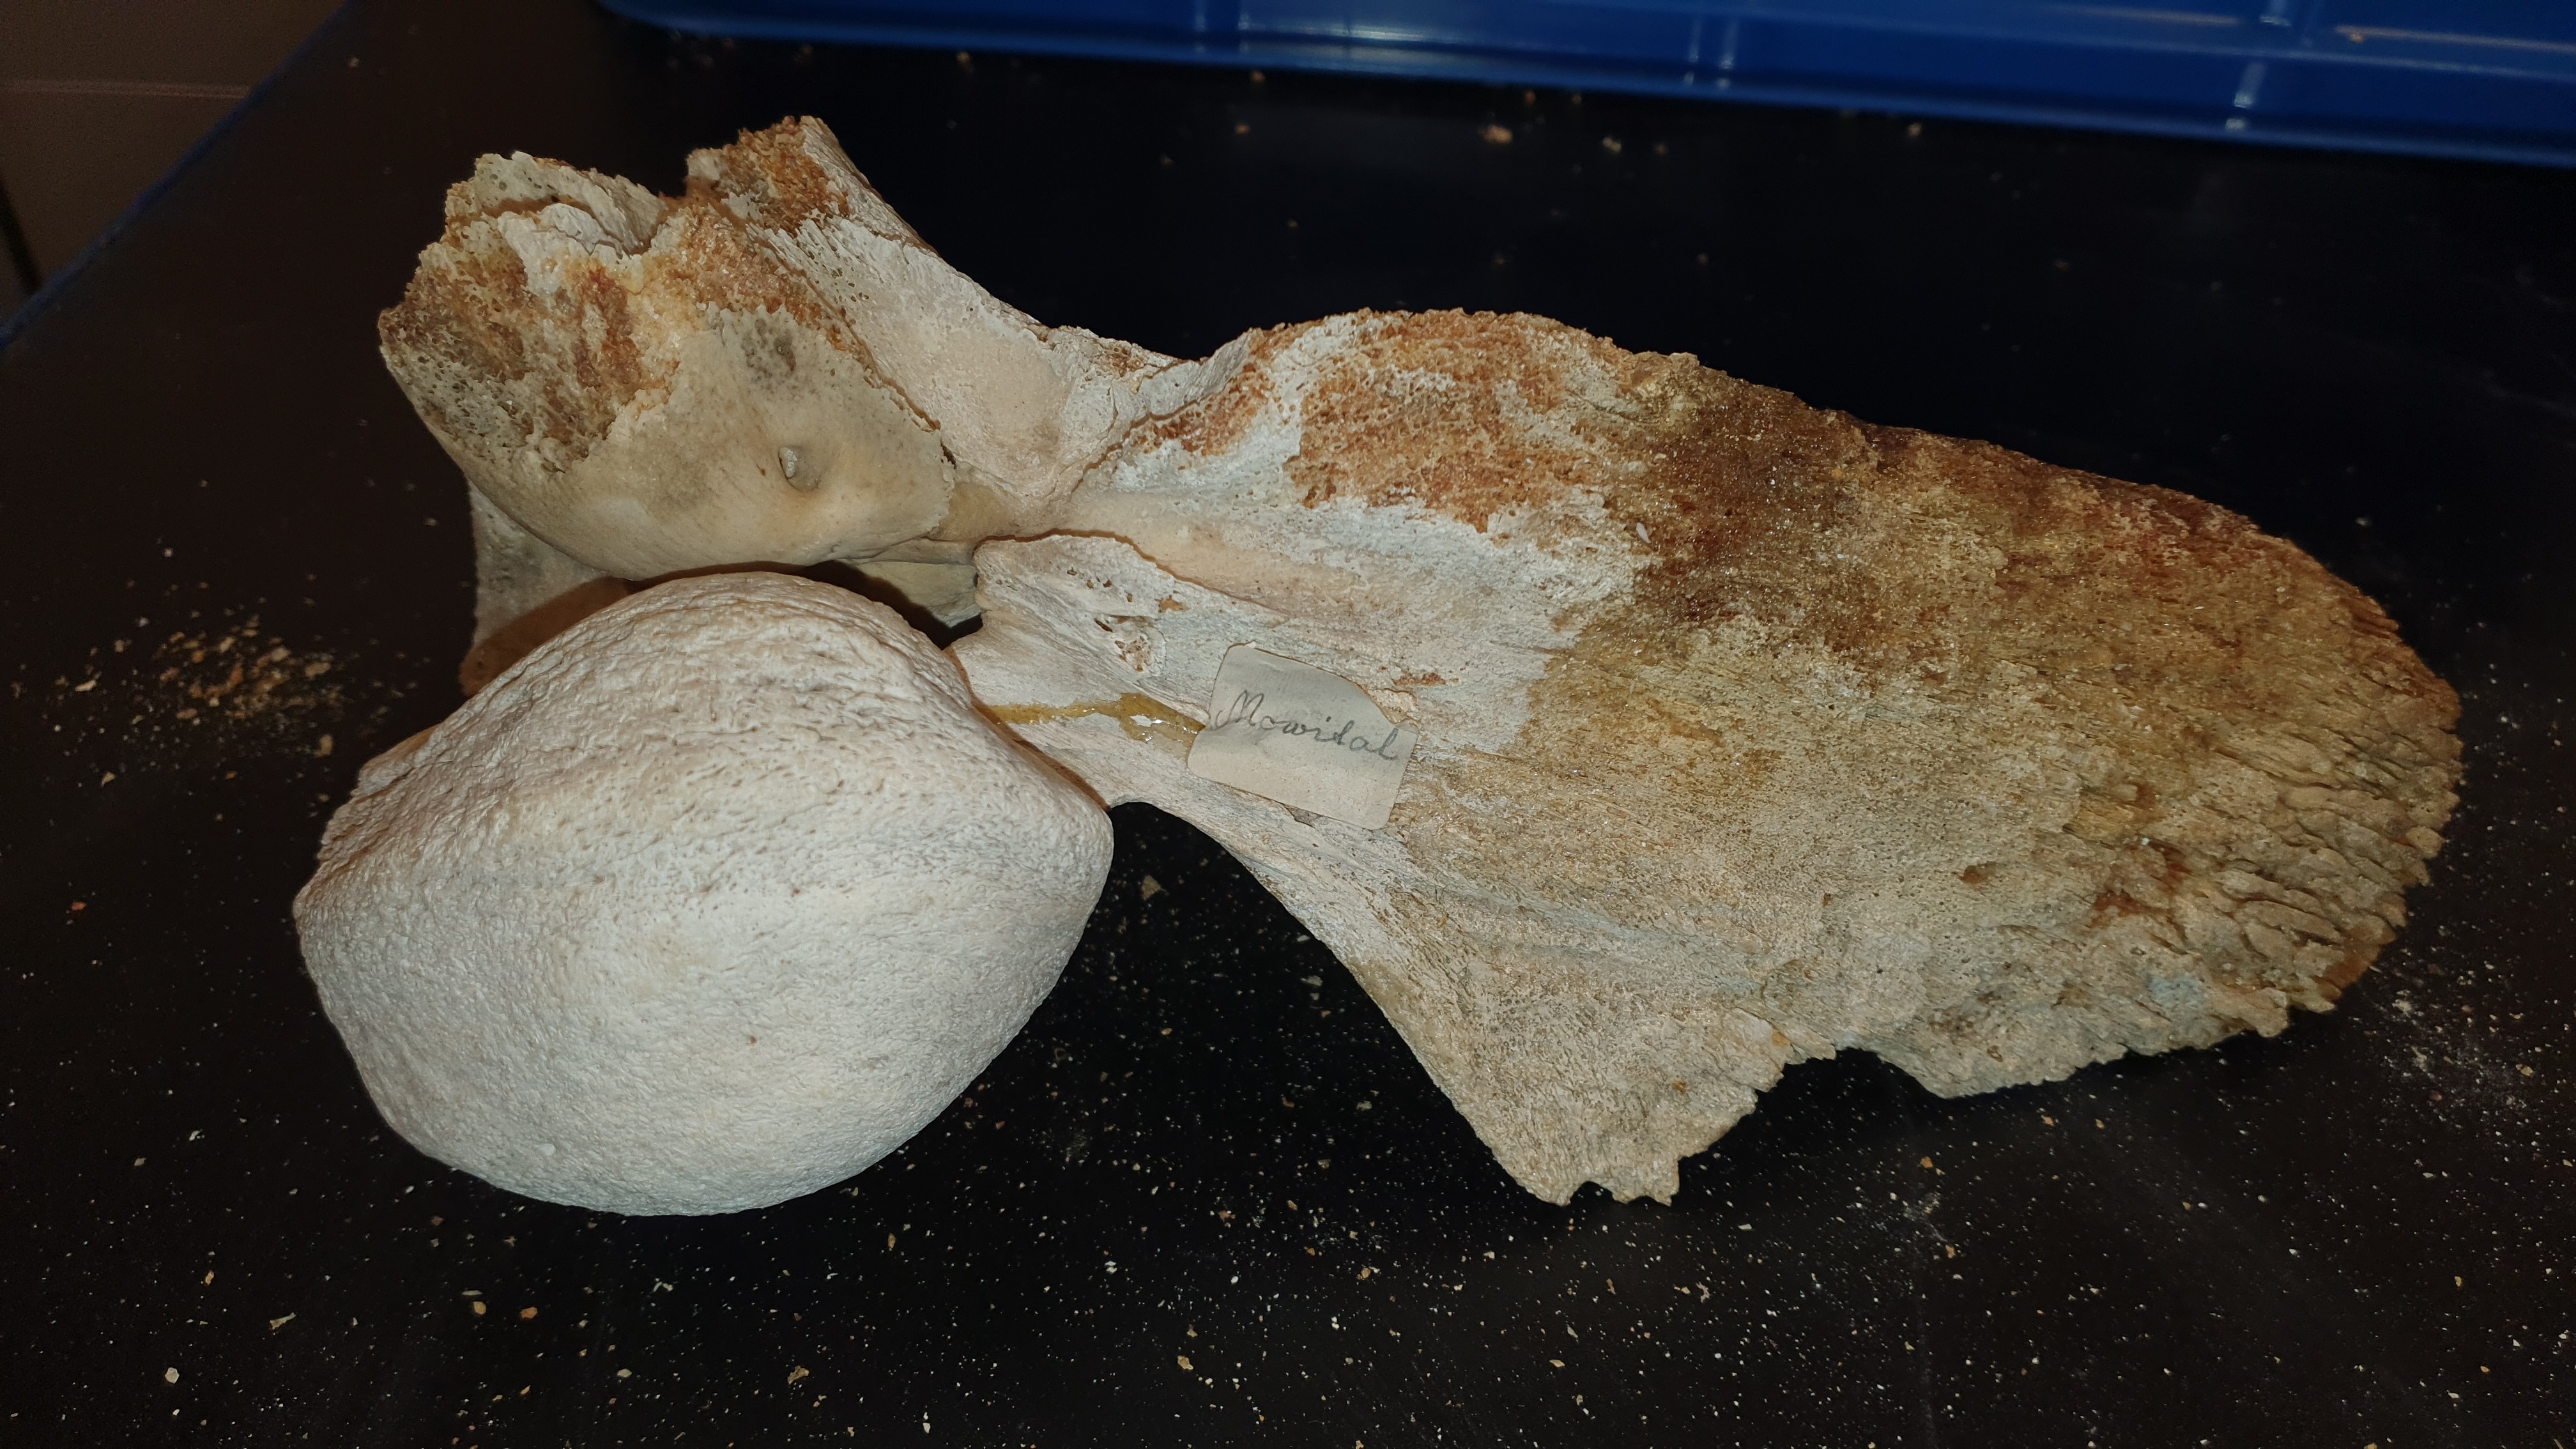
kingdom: Animalia
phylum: Chordata
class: Mammalia
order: Cetacea
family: Balaenopteridae
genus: Megaptera
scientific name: Megaptera novaeangliae
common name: Humpback whale
